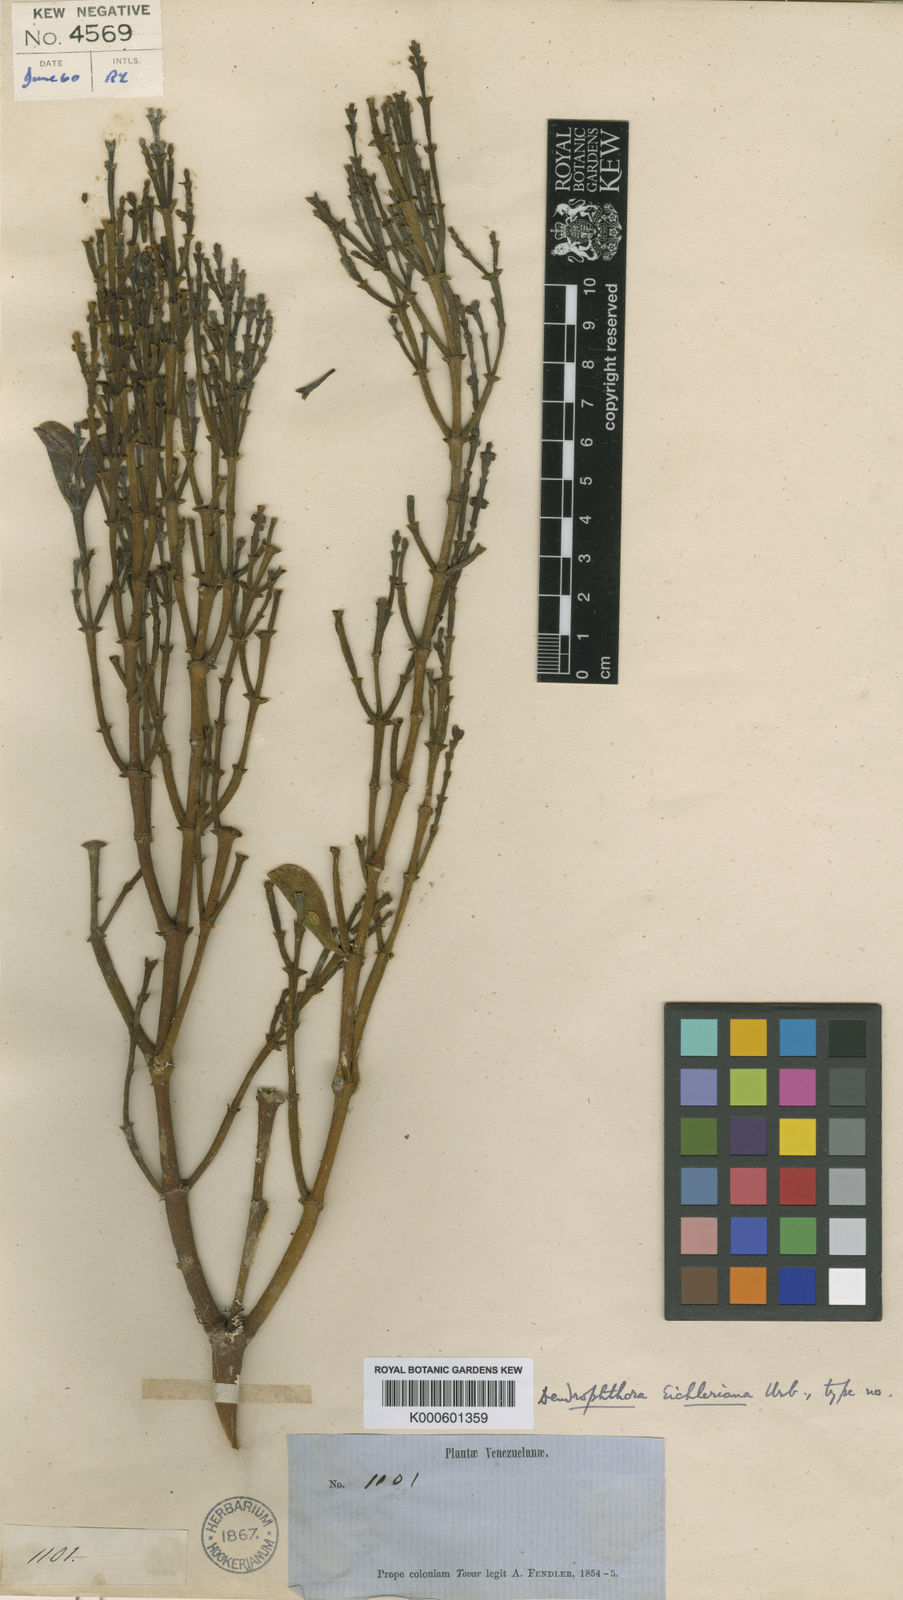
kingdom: Plantae
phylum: Tracheophyta
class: Magnoliopsida
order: Santalales
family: Viscaceae
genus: Dendrophthora
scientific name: Dendrophthora eichleriana
